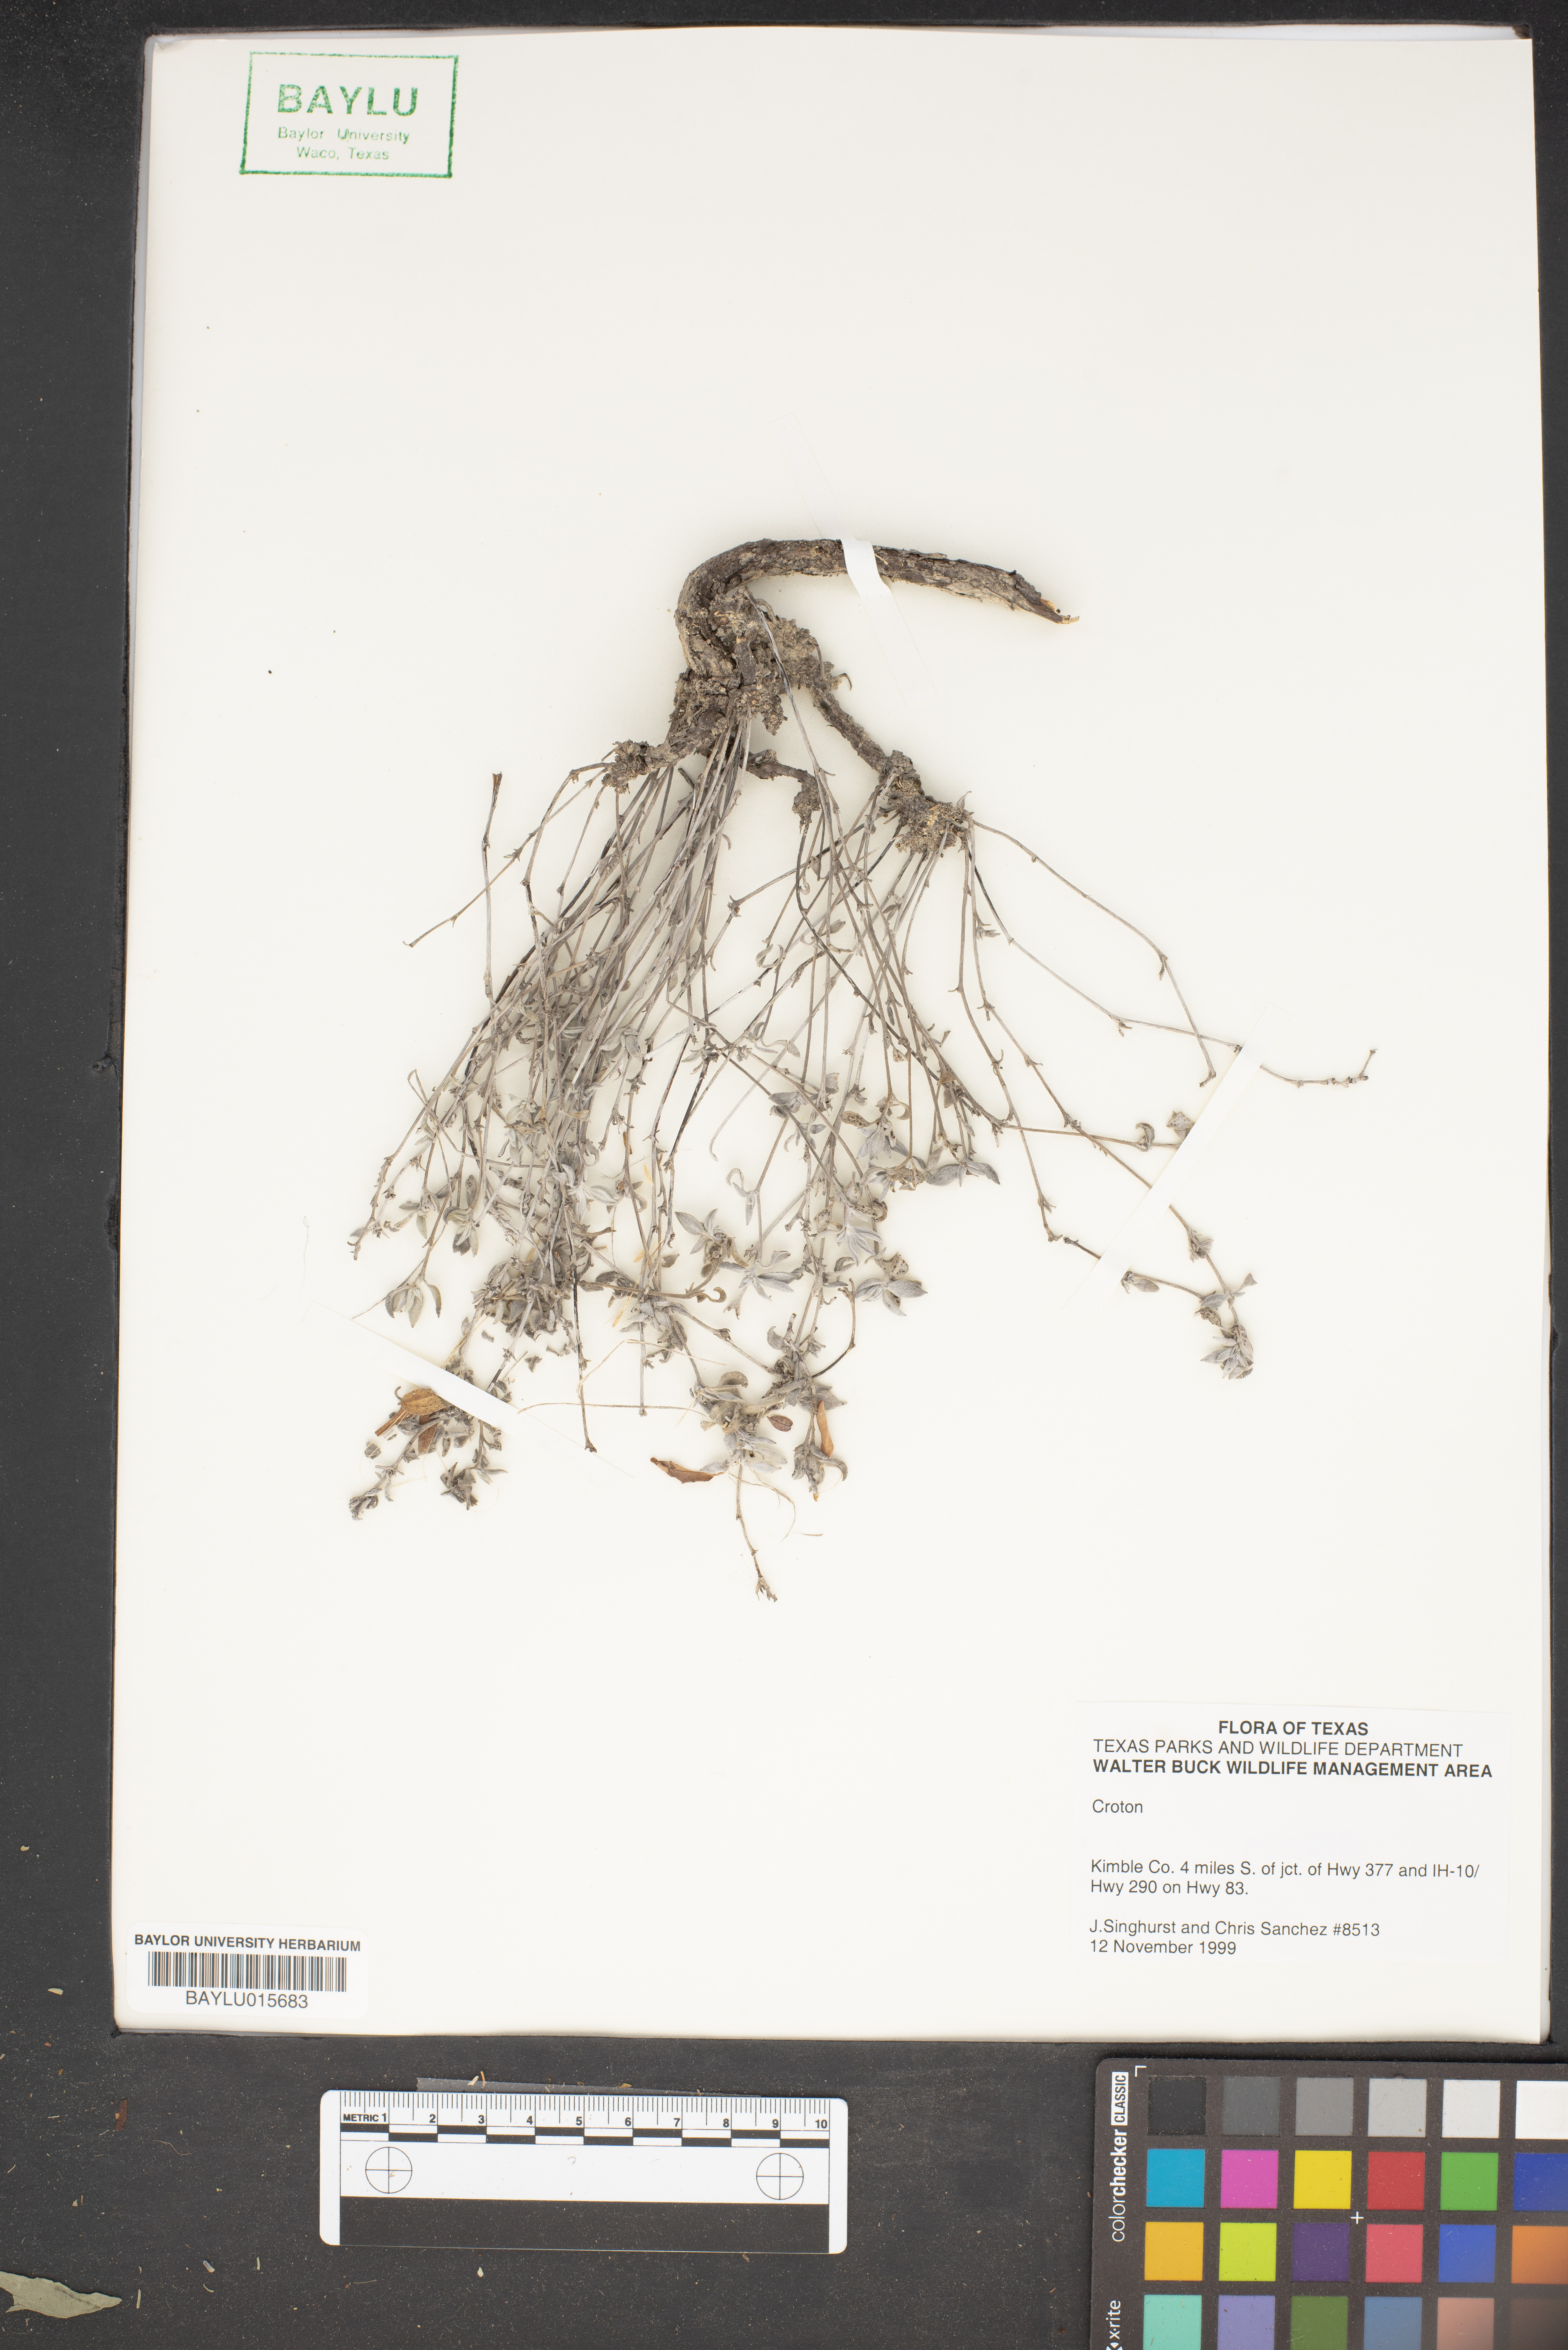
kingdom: Plantae
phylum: Tracheophyta
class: Magnoliopsida
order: Malpighiales
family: Euphorbiaceae
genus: Croton
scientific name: Croton
